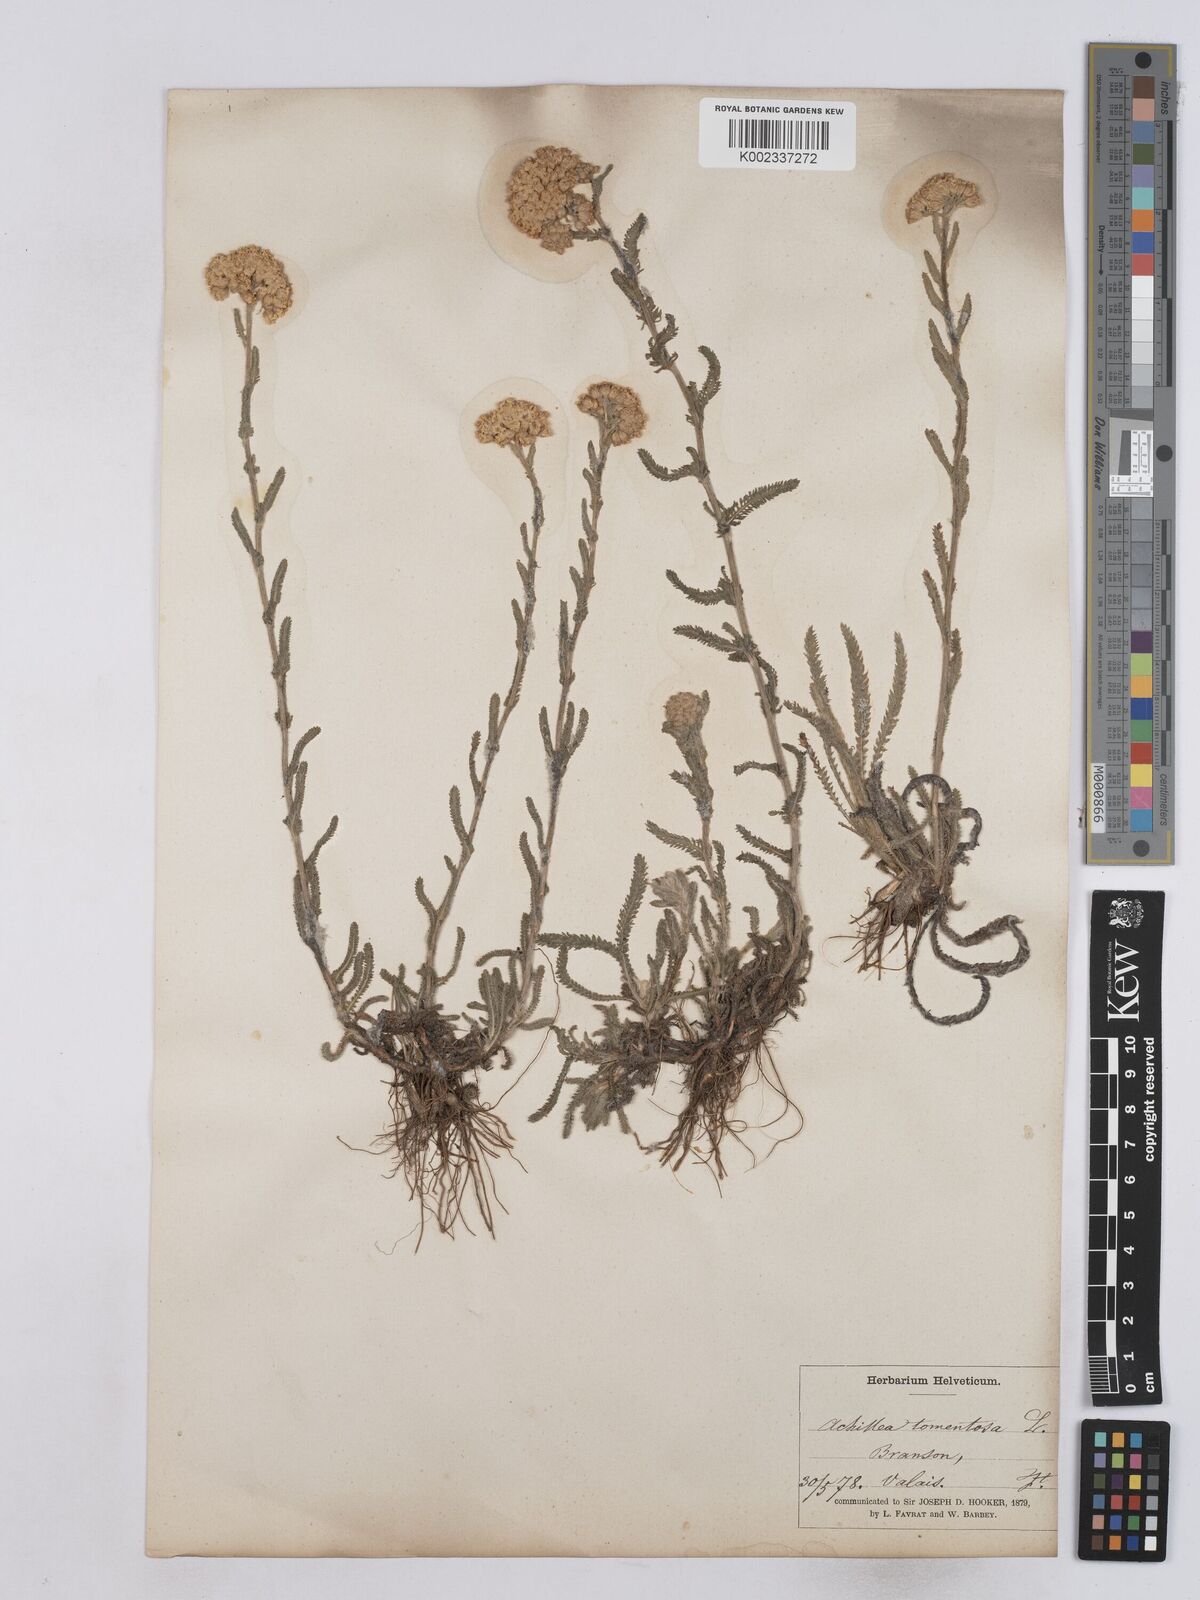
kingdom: Plantae
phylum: Tracheophyta
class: Magnoliopsida
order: Asterales
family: Asteraceae
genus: Achillea
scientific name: Achillea tomentosa
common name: Yellow milfoil
